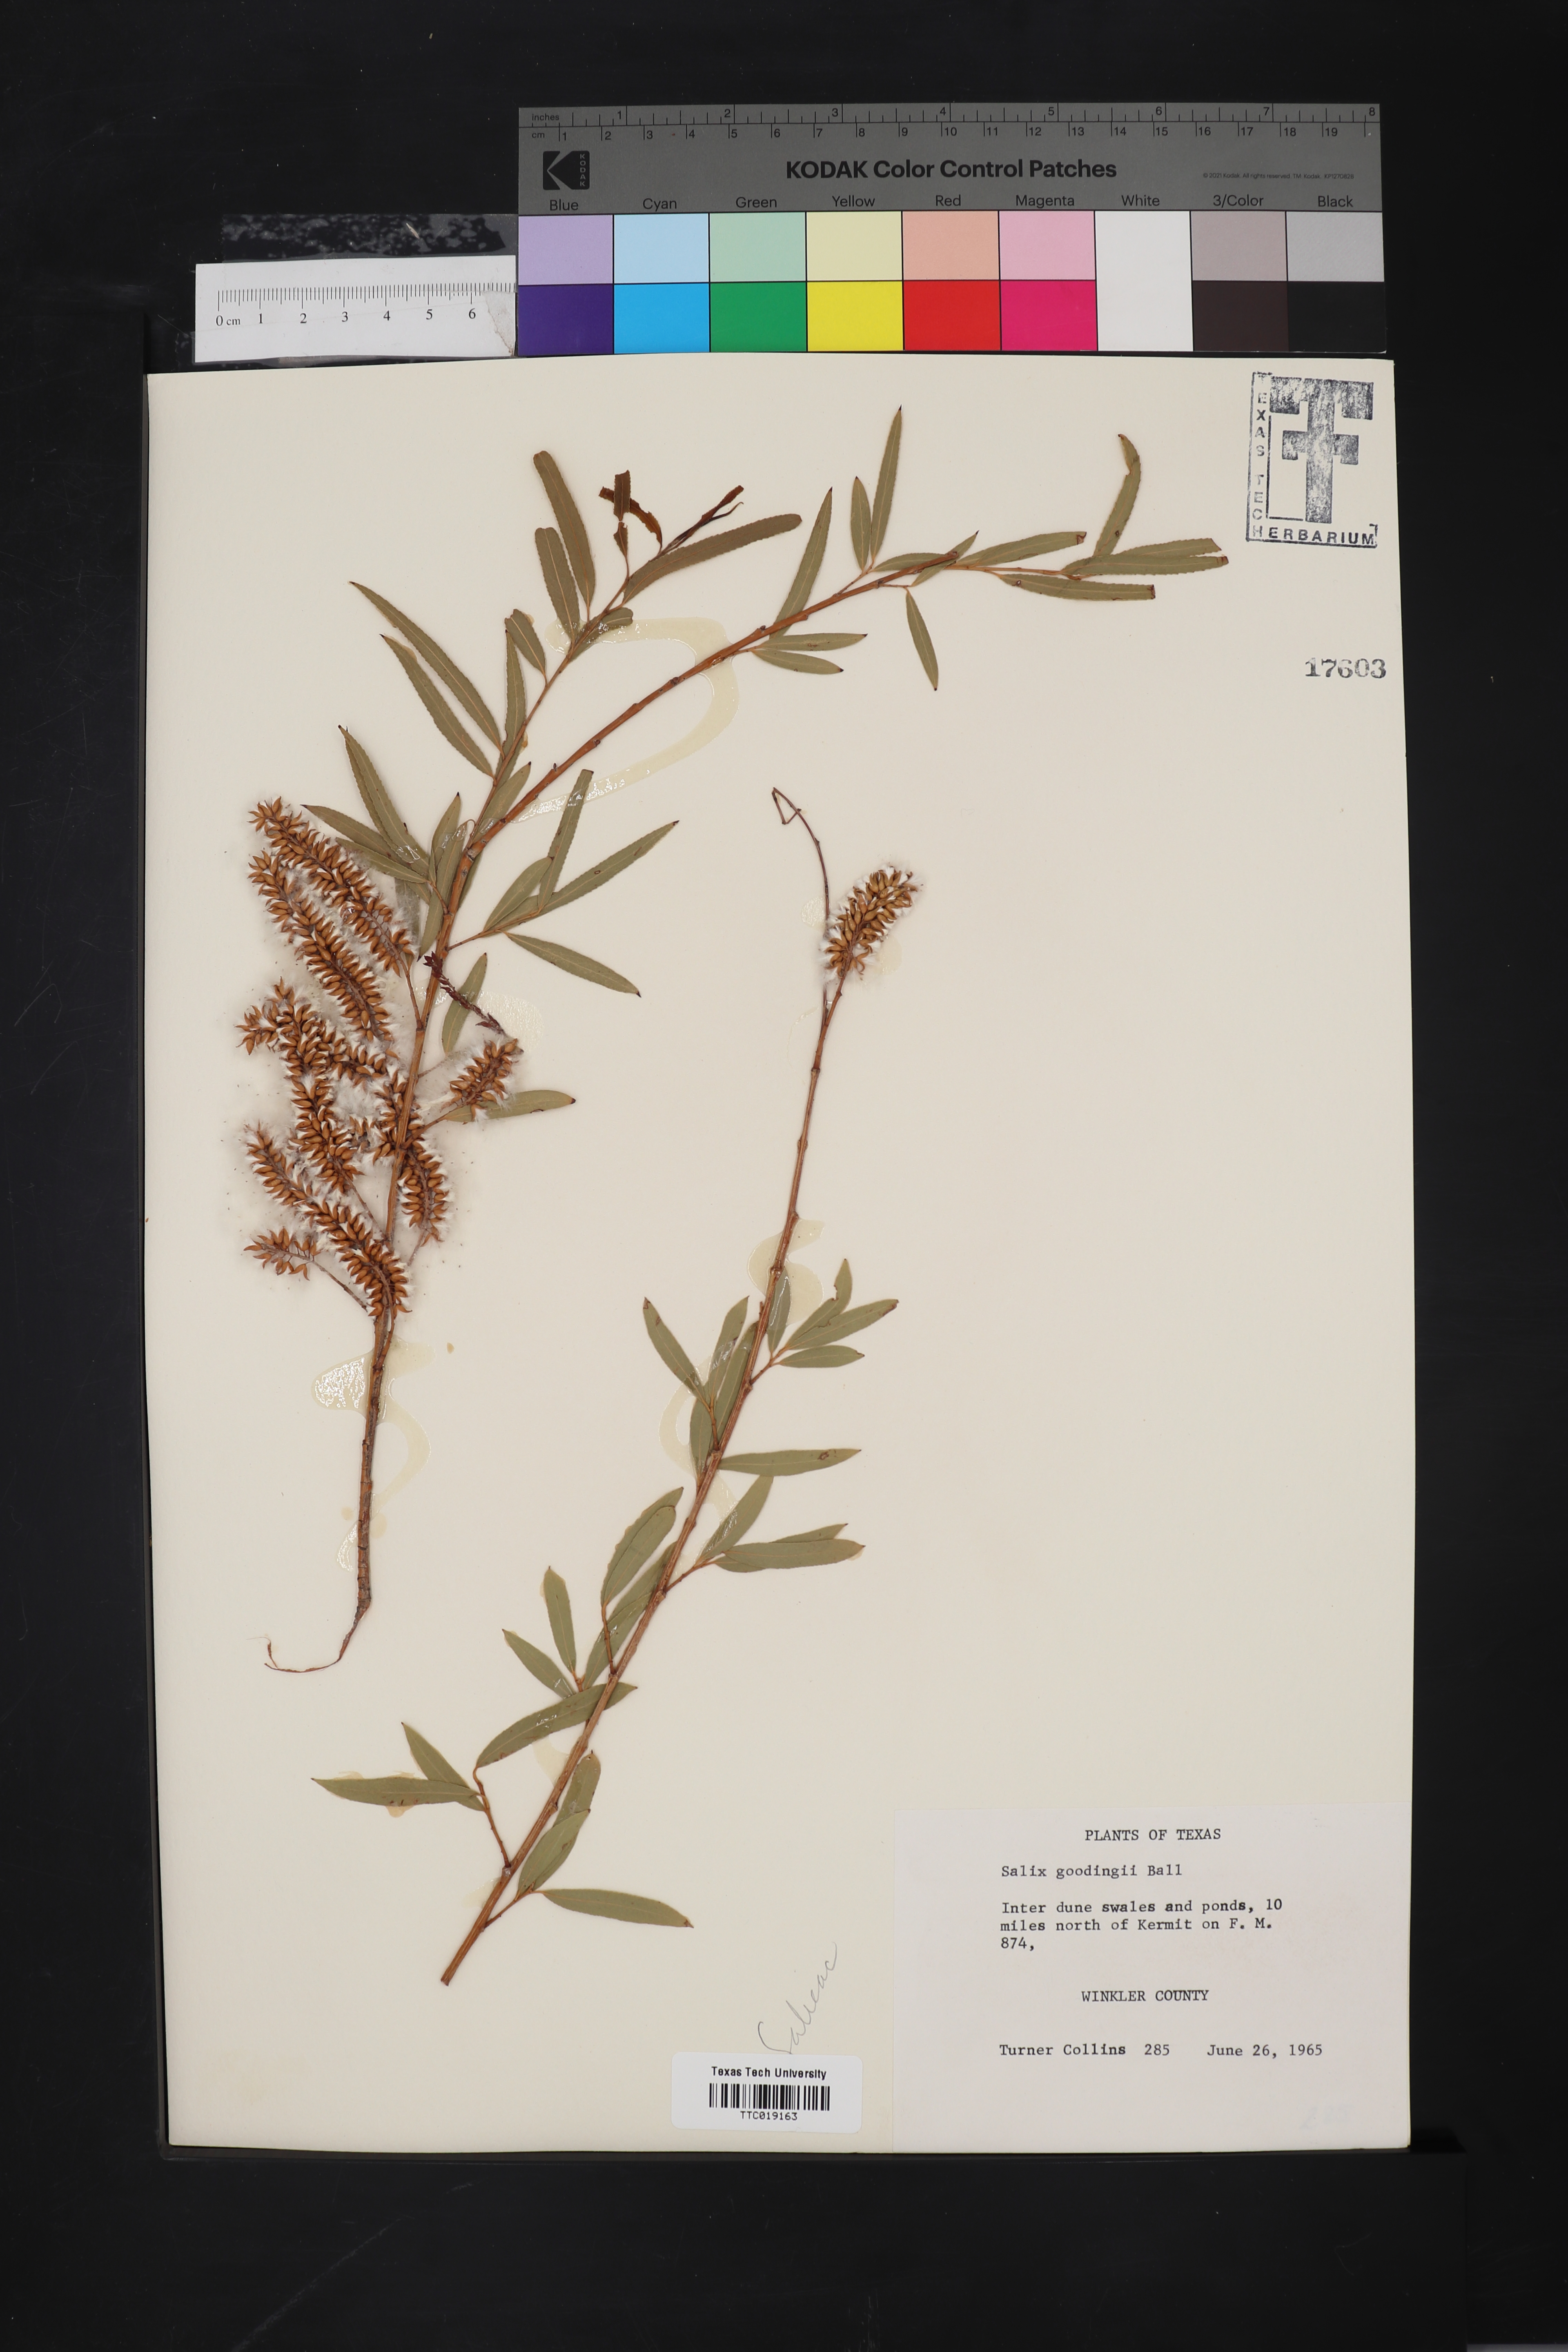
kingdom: Plantae
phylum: Tracheophyta
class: Magnoliopsida
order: Malpighiales
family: Salicaceae
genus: Salix
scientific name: Salix gooddingii
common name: Goodding's willow
